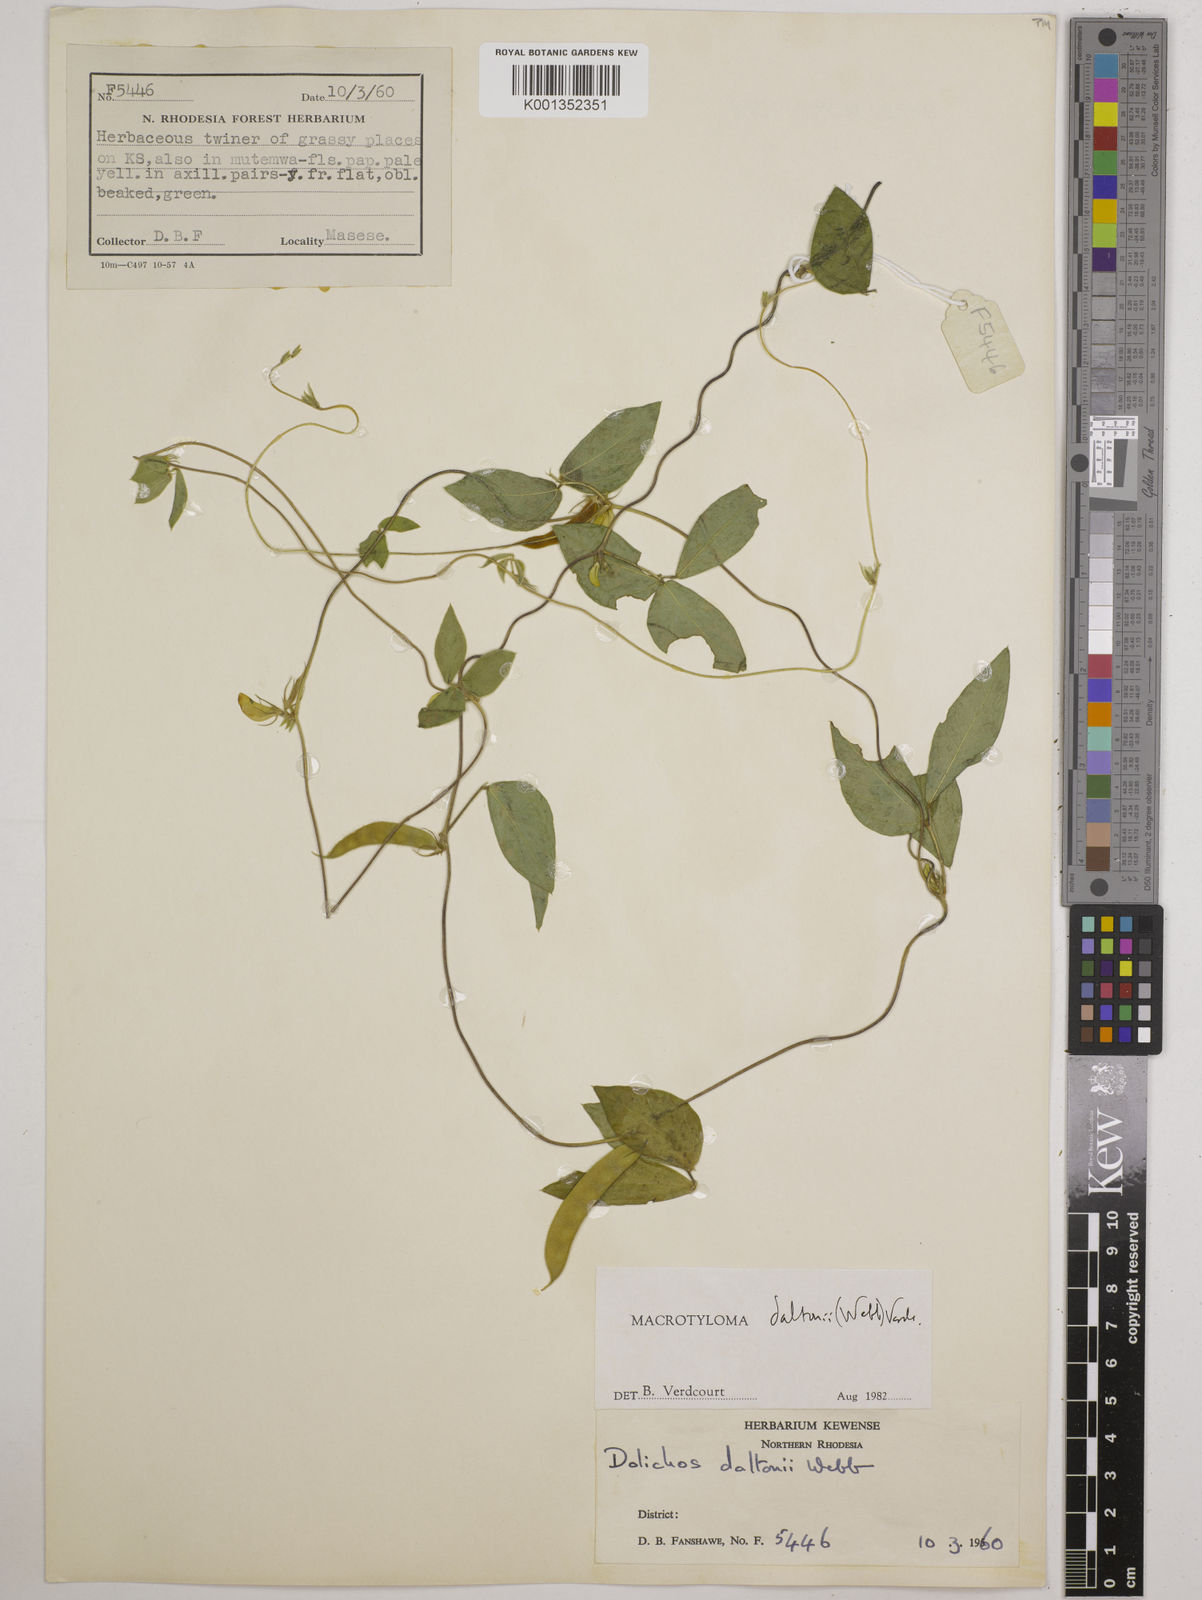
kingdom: Plantae
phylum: Tracheophyta
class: Magnoliopsida
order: Fabales
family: Fabaceae
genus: Macrotyloma
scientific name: Macrotyloma daltonii
